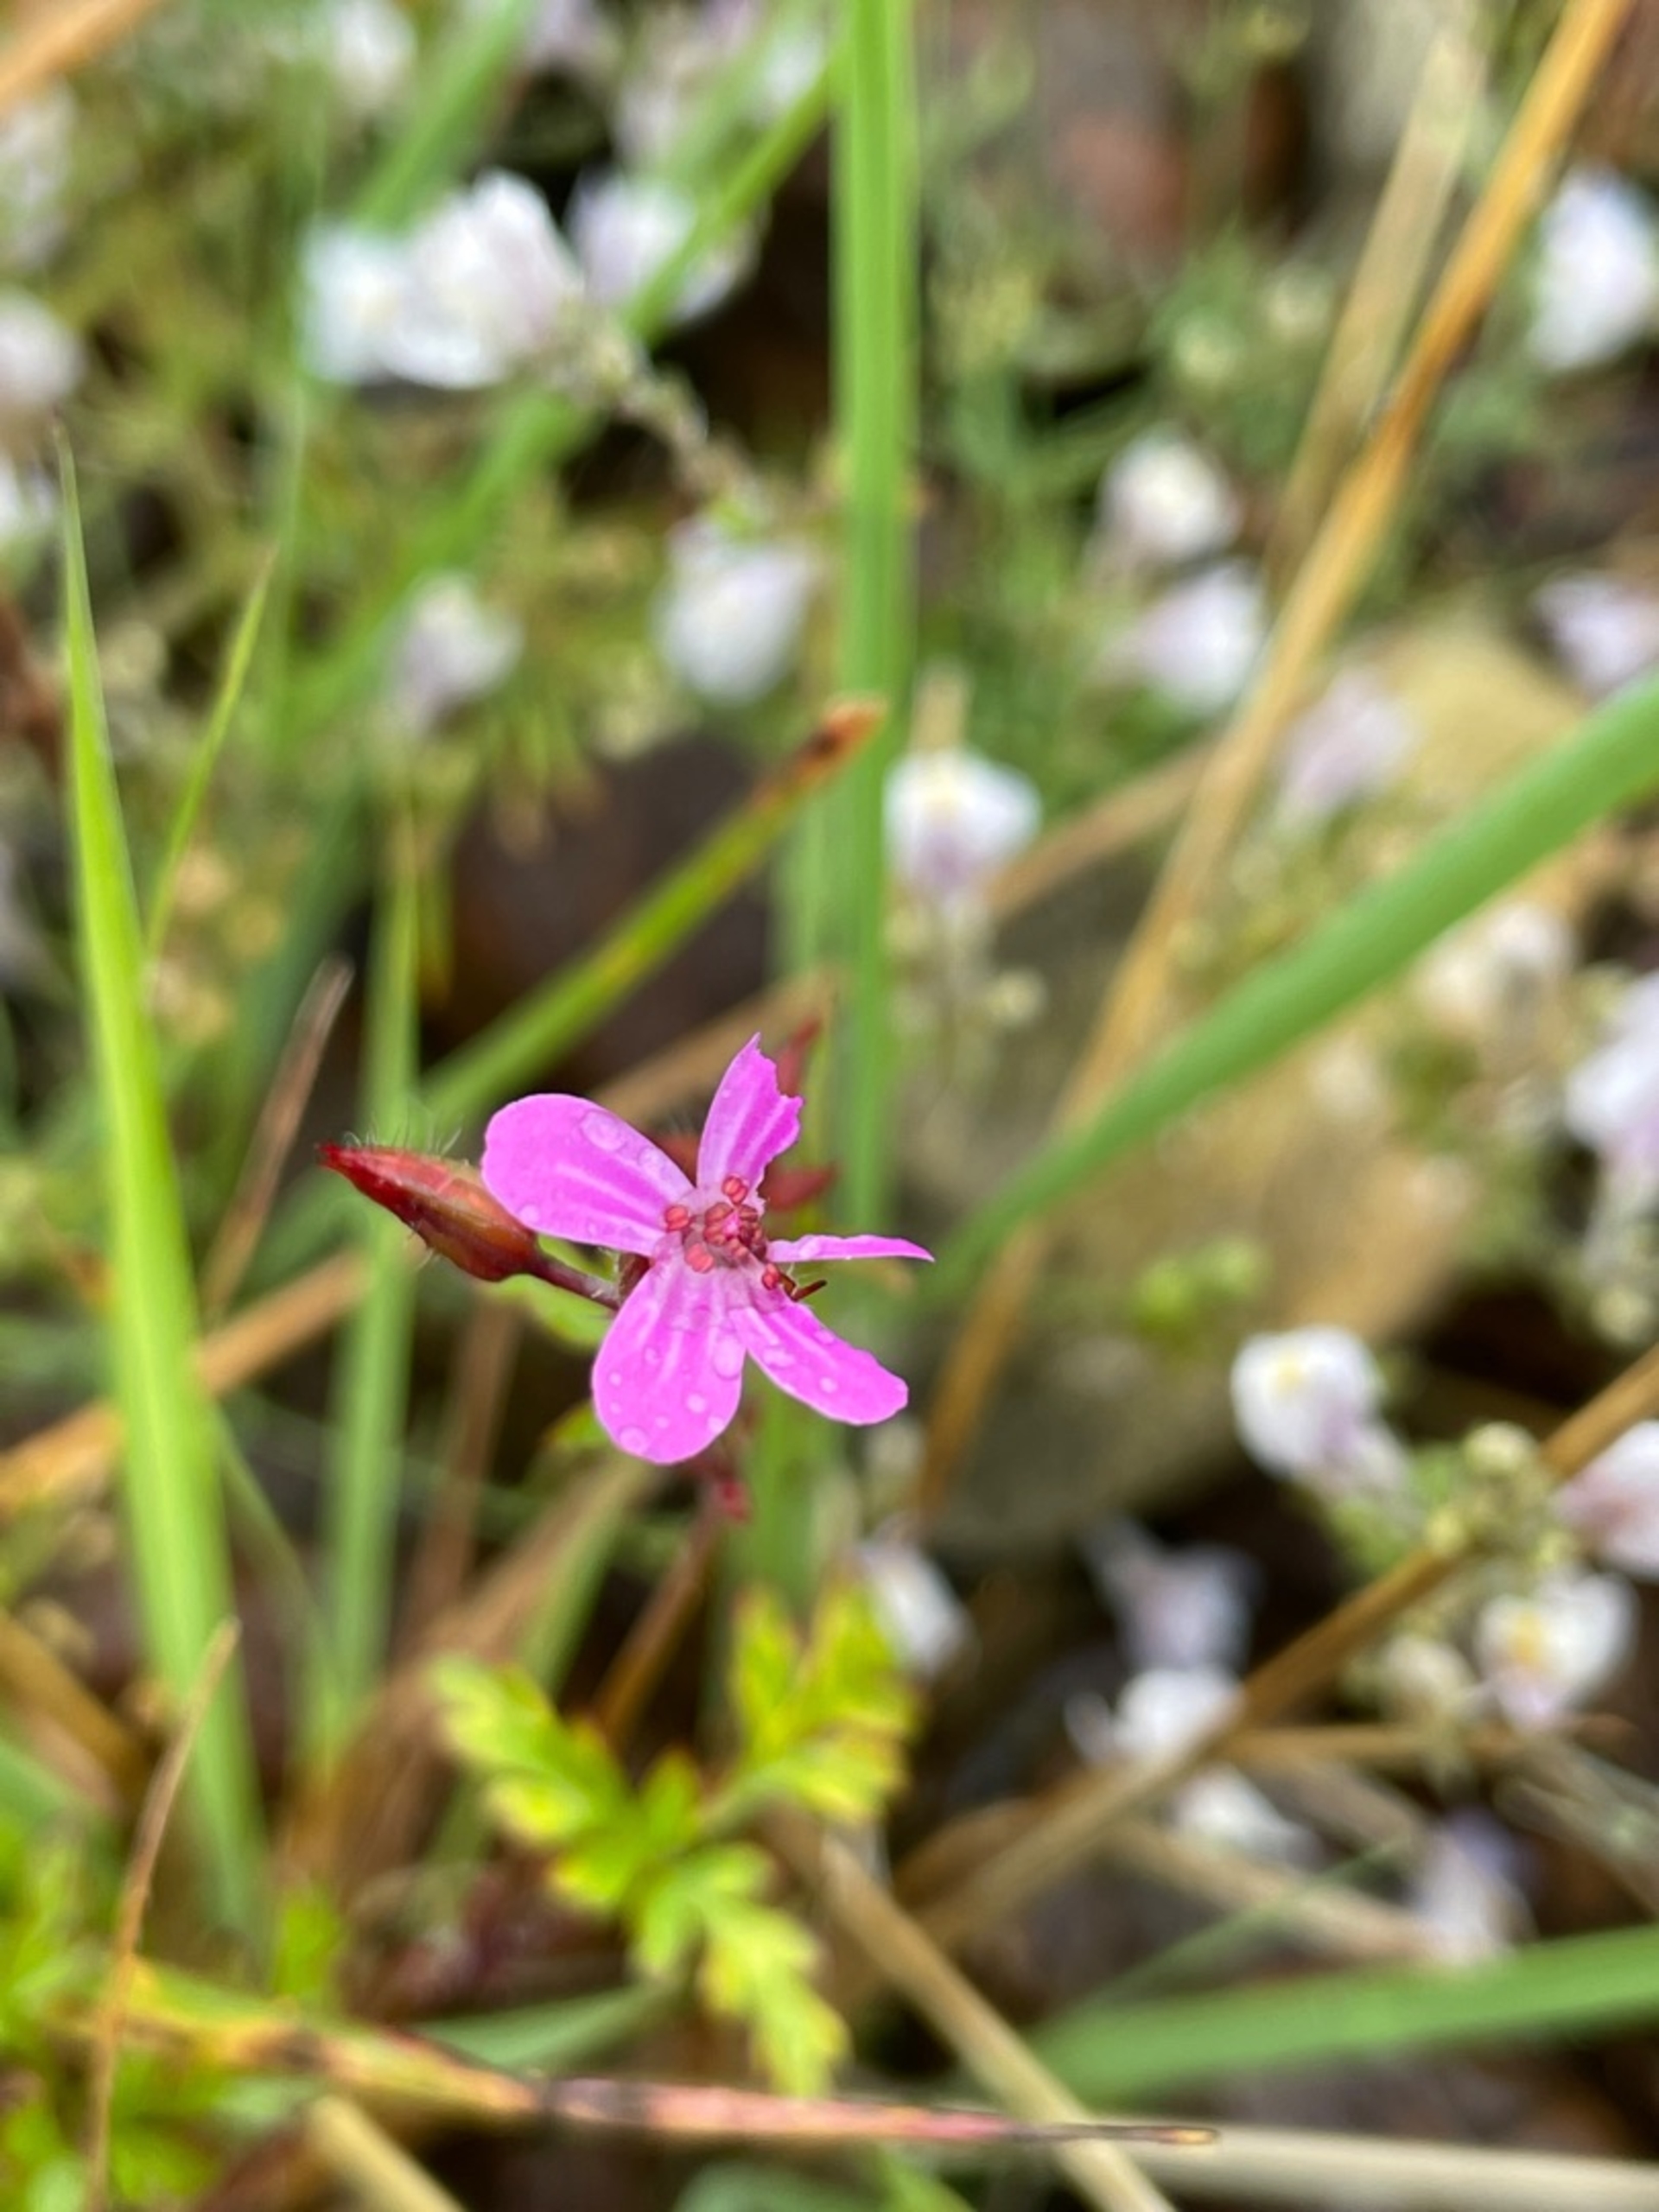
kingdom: Plantae
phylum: Tracheophyta
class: Magnoliopsida
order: Geraniales
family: Geraniaceae
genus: Geranium
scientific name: Geranium robertianum
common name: Stinkende storkenæb
